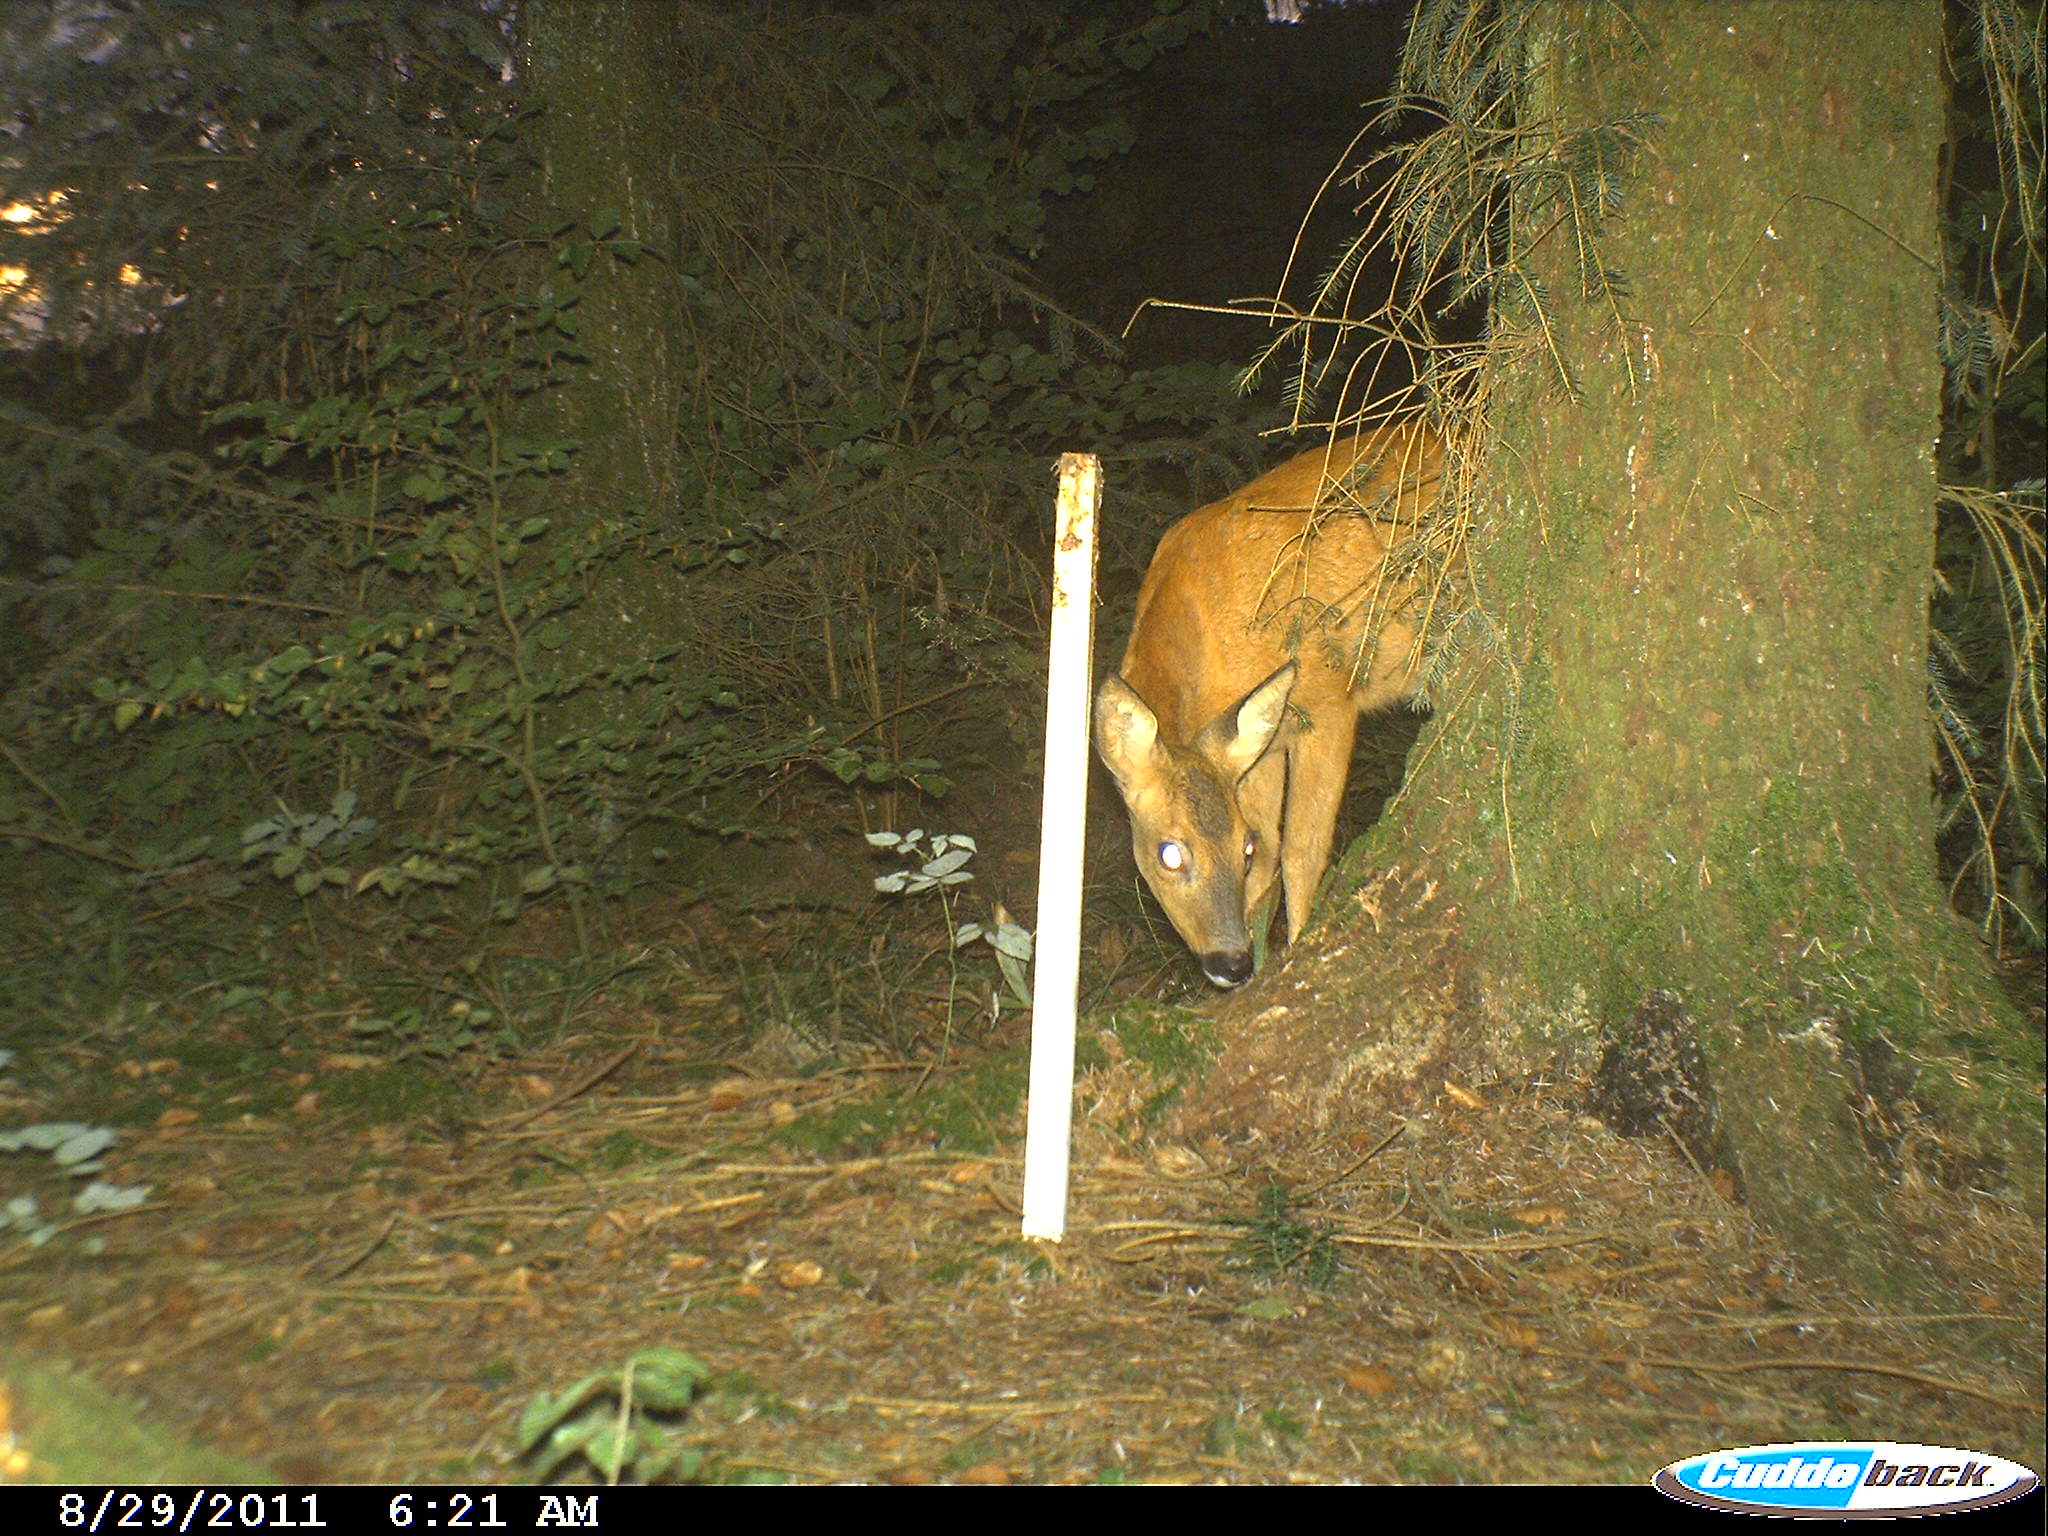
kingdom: Animalia
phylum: Chordata
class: Mammalia
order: Artiodactyla
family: Cervidae
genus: Capreolus
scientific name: Capreolus capreolus
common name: Western roe deer
